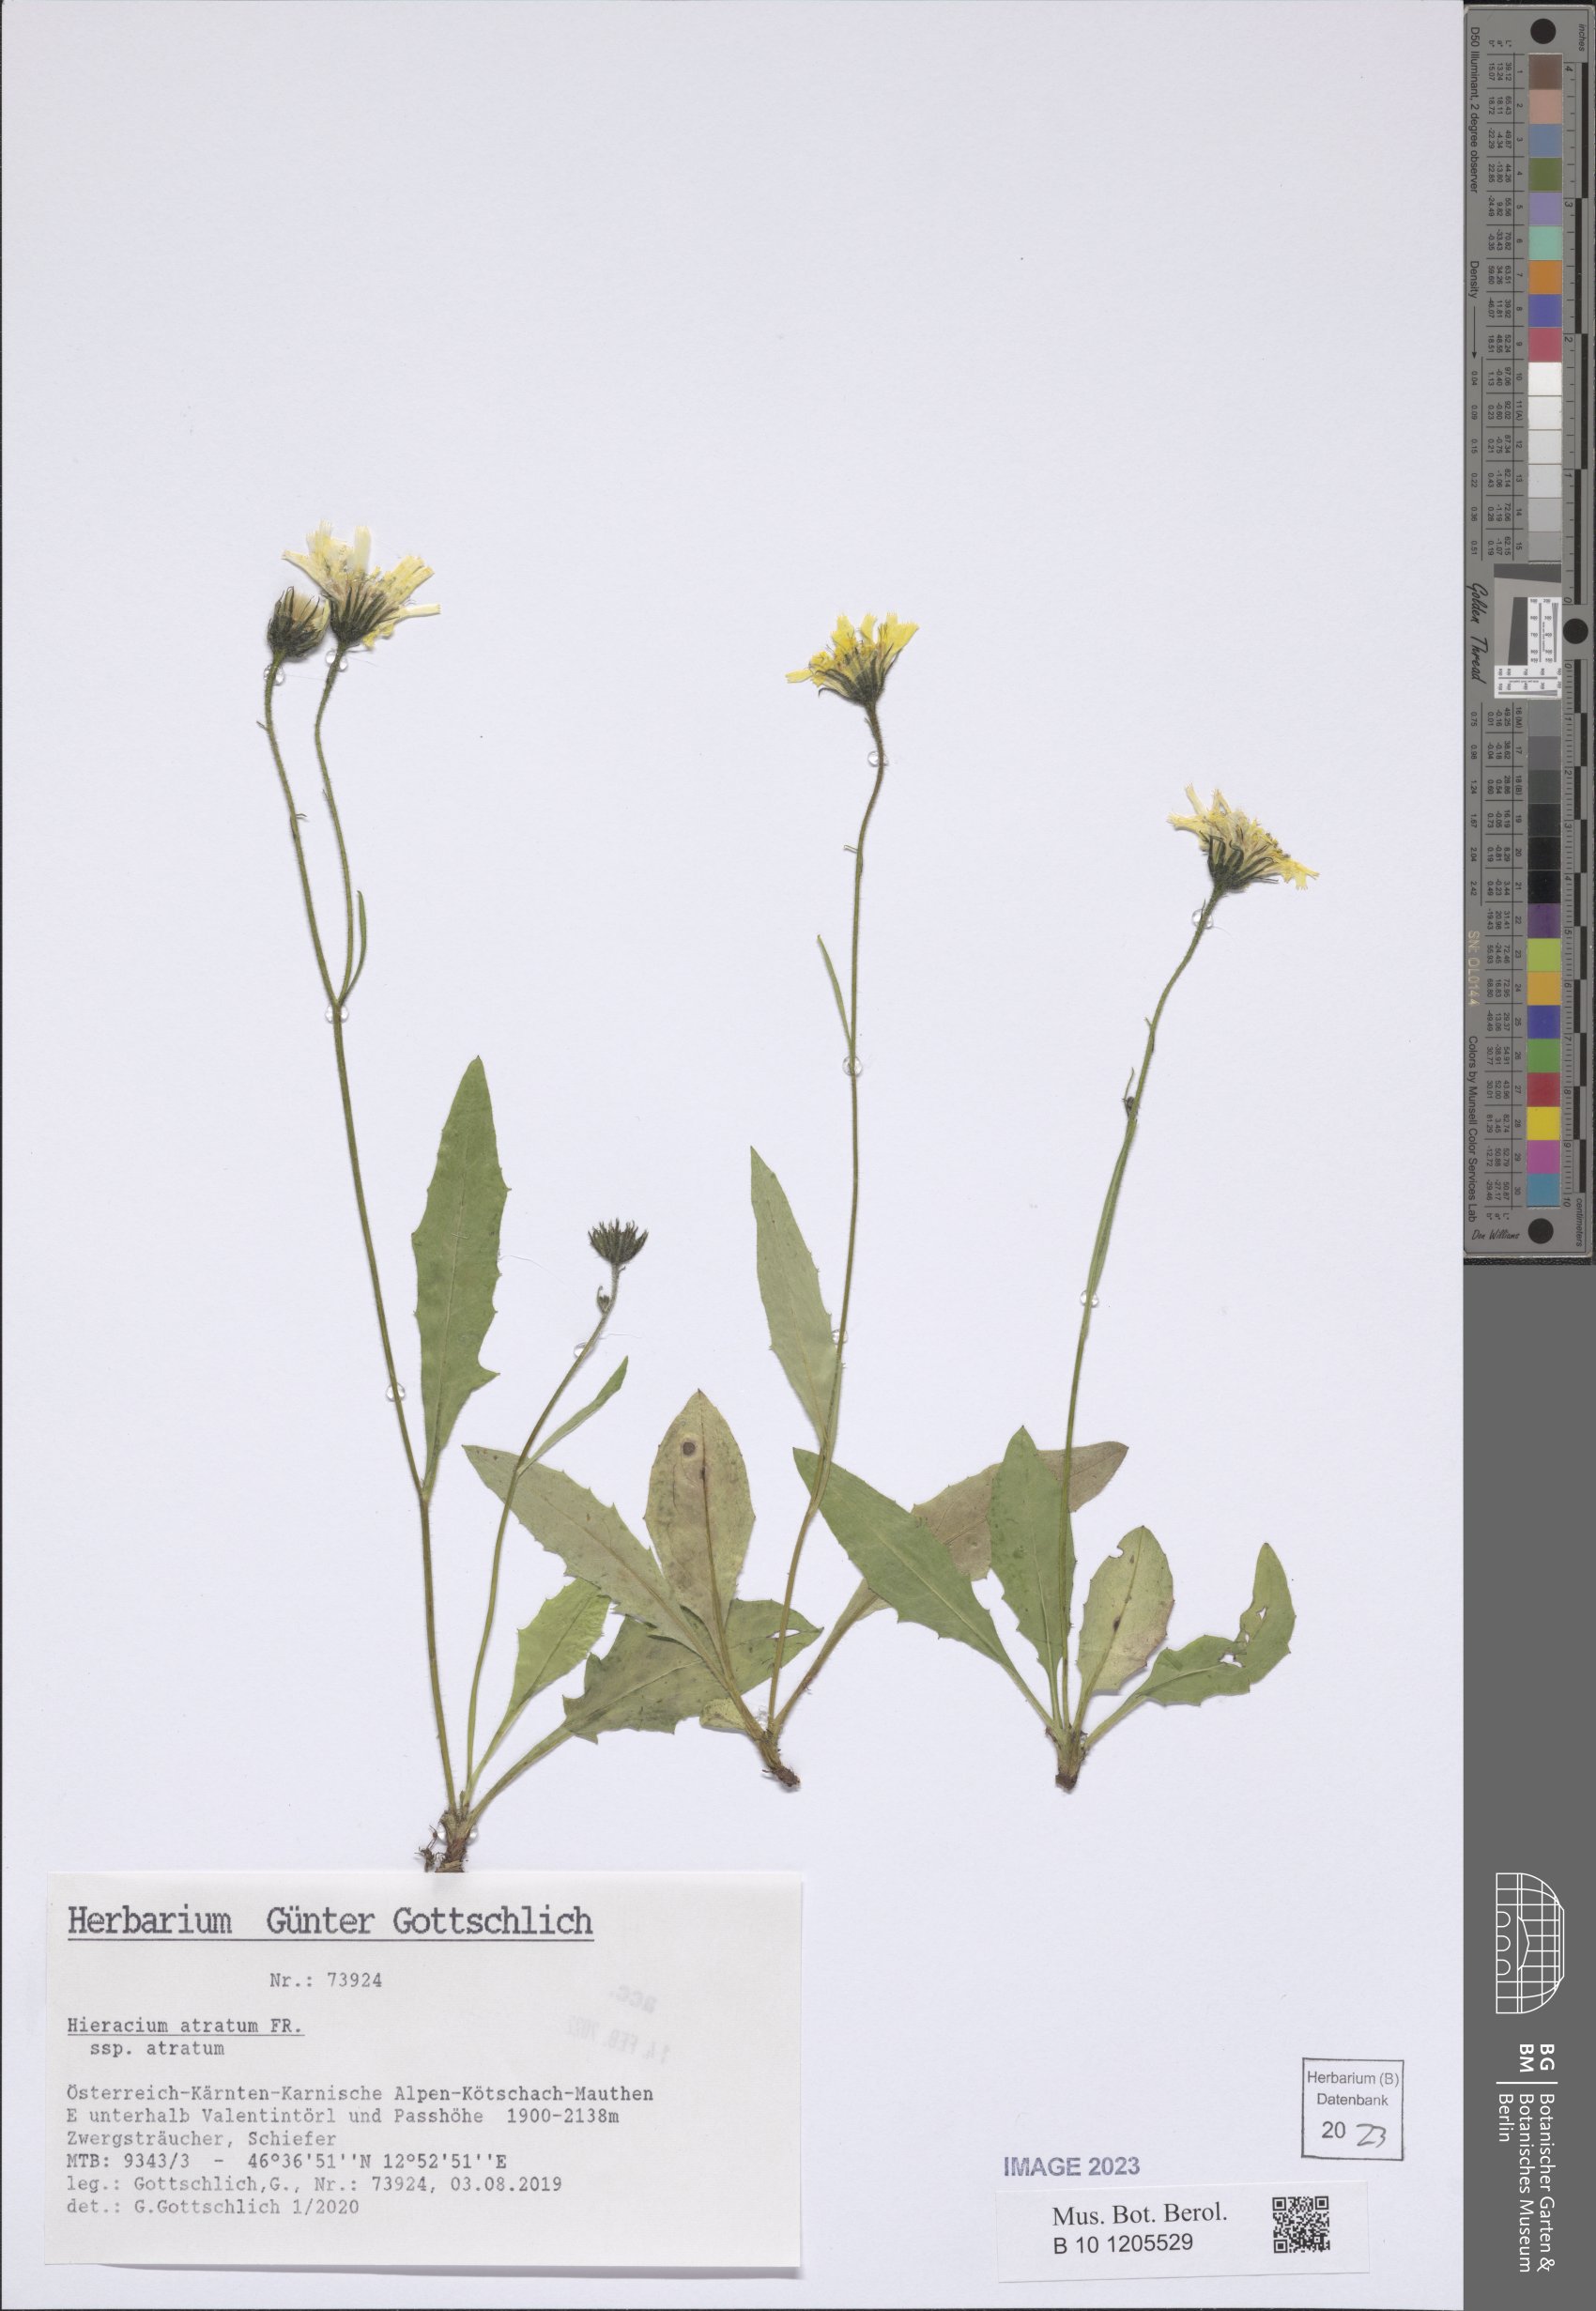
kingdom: Plantae
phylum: Tracheophyta
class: Magnoliopsida
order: Asterales
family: Asteraceae
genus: Hieracium
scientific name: Hieracium atratum
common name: Polar hawkweed
